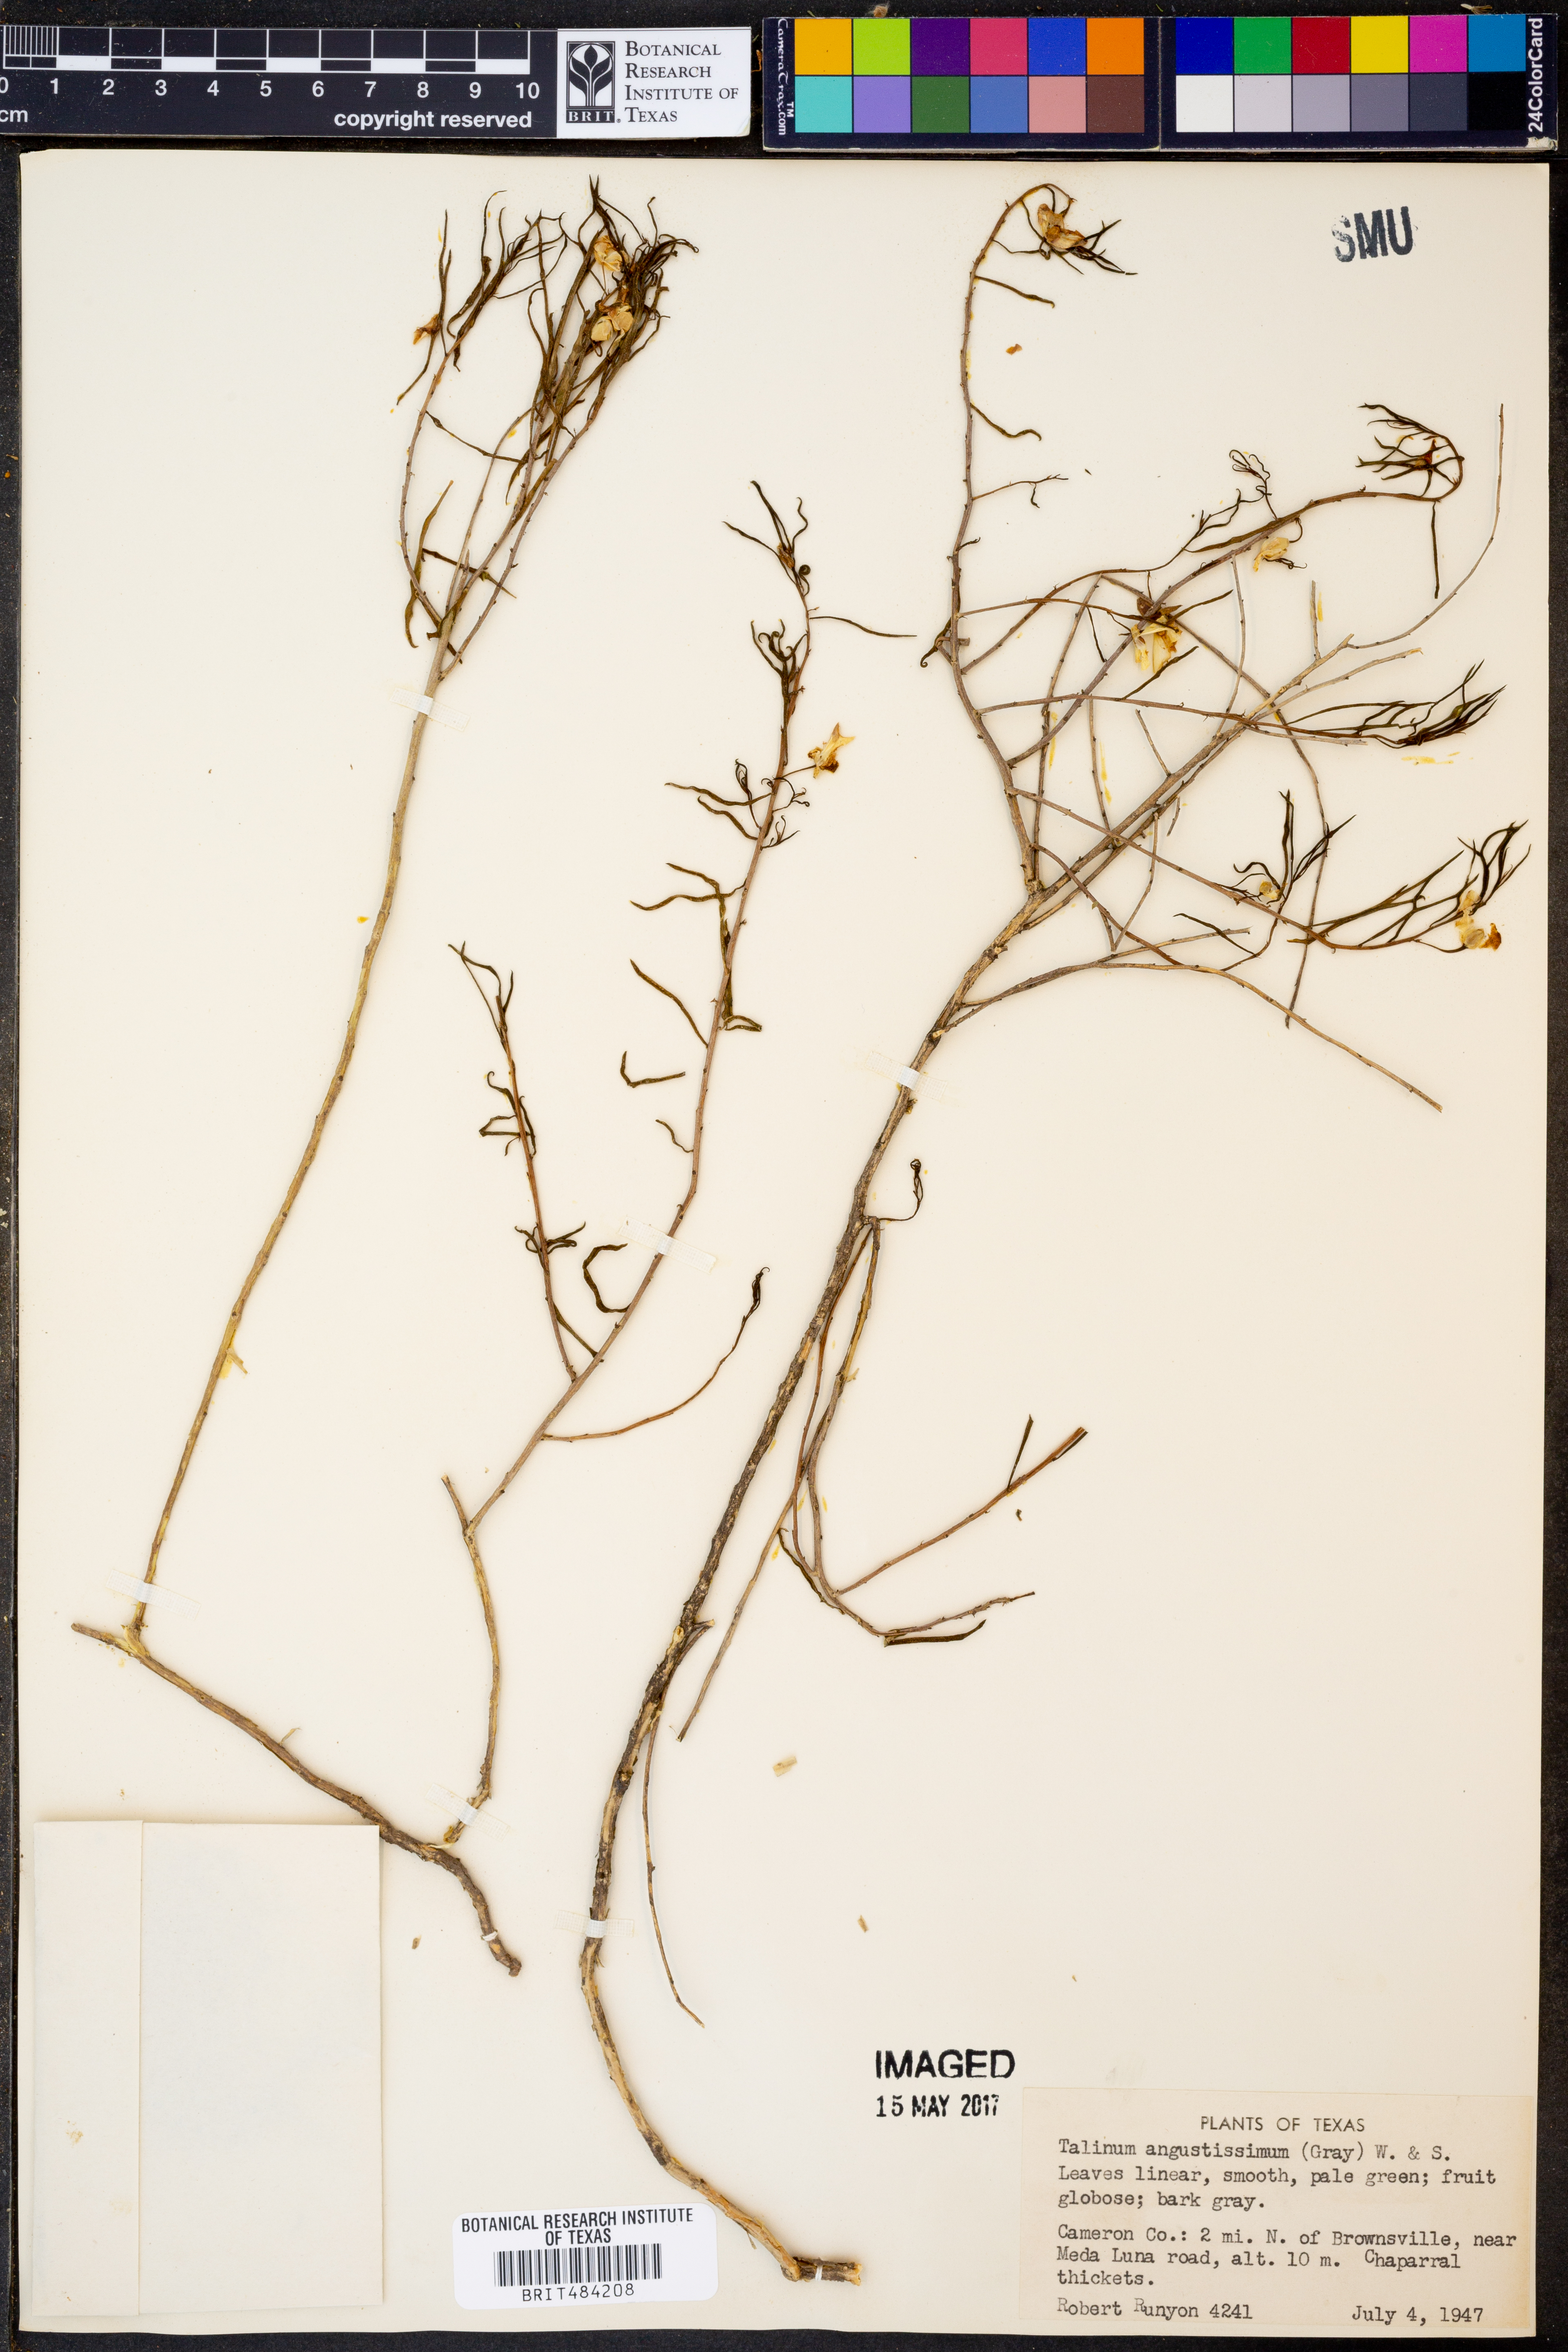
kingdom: Plantae
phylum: Tracheophyta
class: Magnoliopsida
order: Caryophyllales
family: Montiaceae
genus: Phemeranthus
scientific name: Phemeranthus aurantiacus
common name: Orange fameflower
